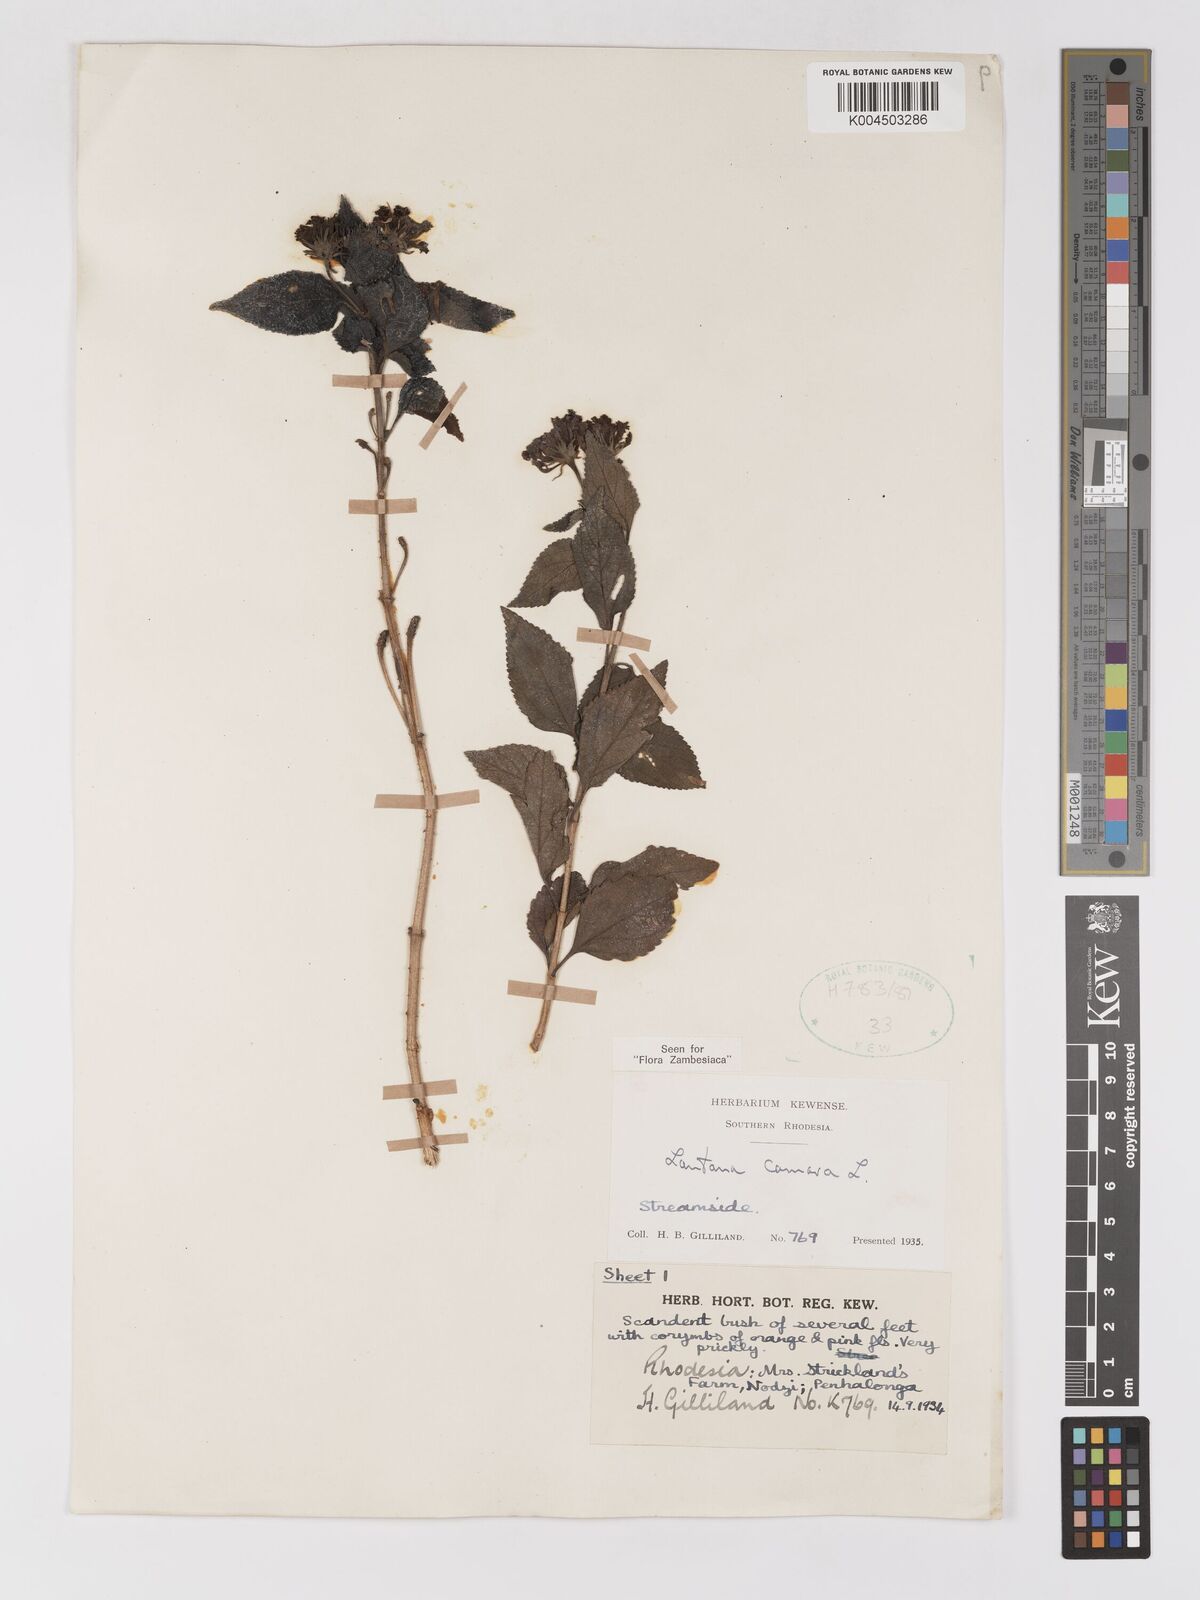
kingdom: Plantae
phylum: Tracheophyta
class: Magnoliopsida
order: Lamiales
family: Verbenaceae
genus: Lantana
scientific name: Lantana camara
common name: Lantana
